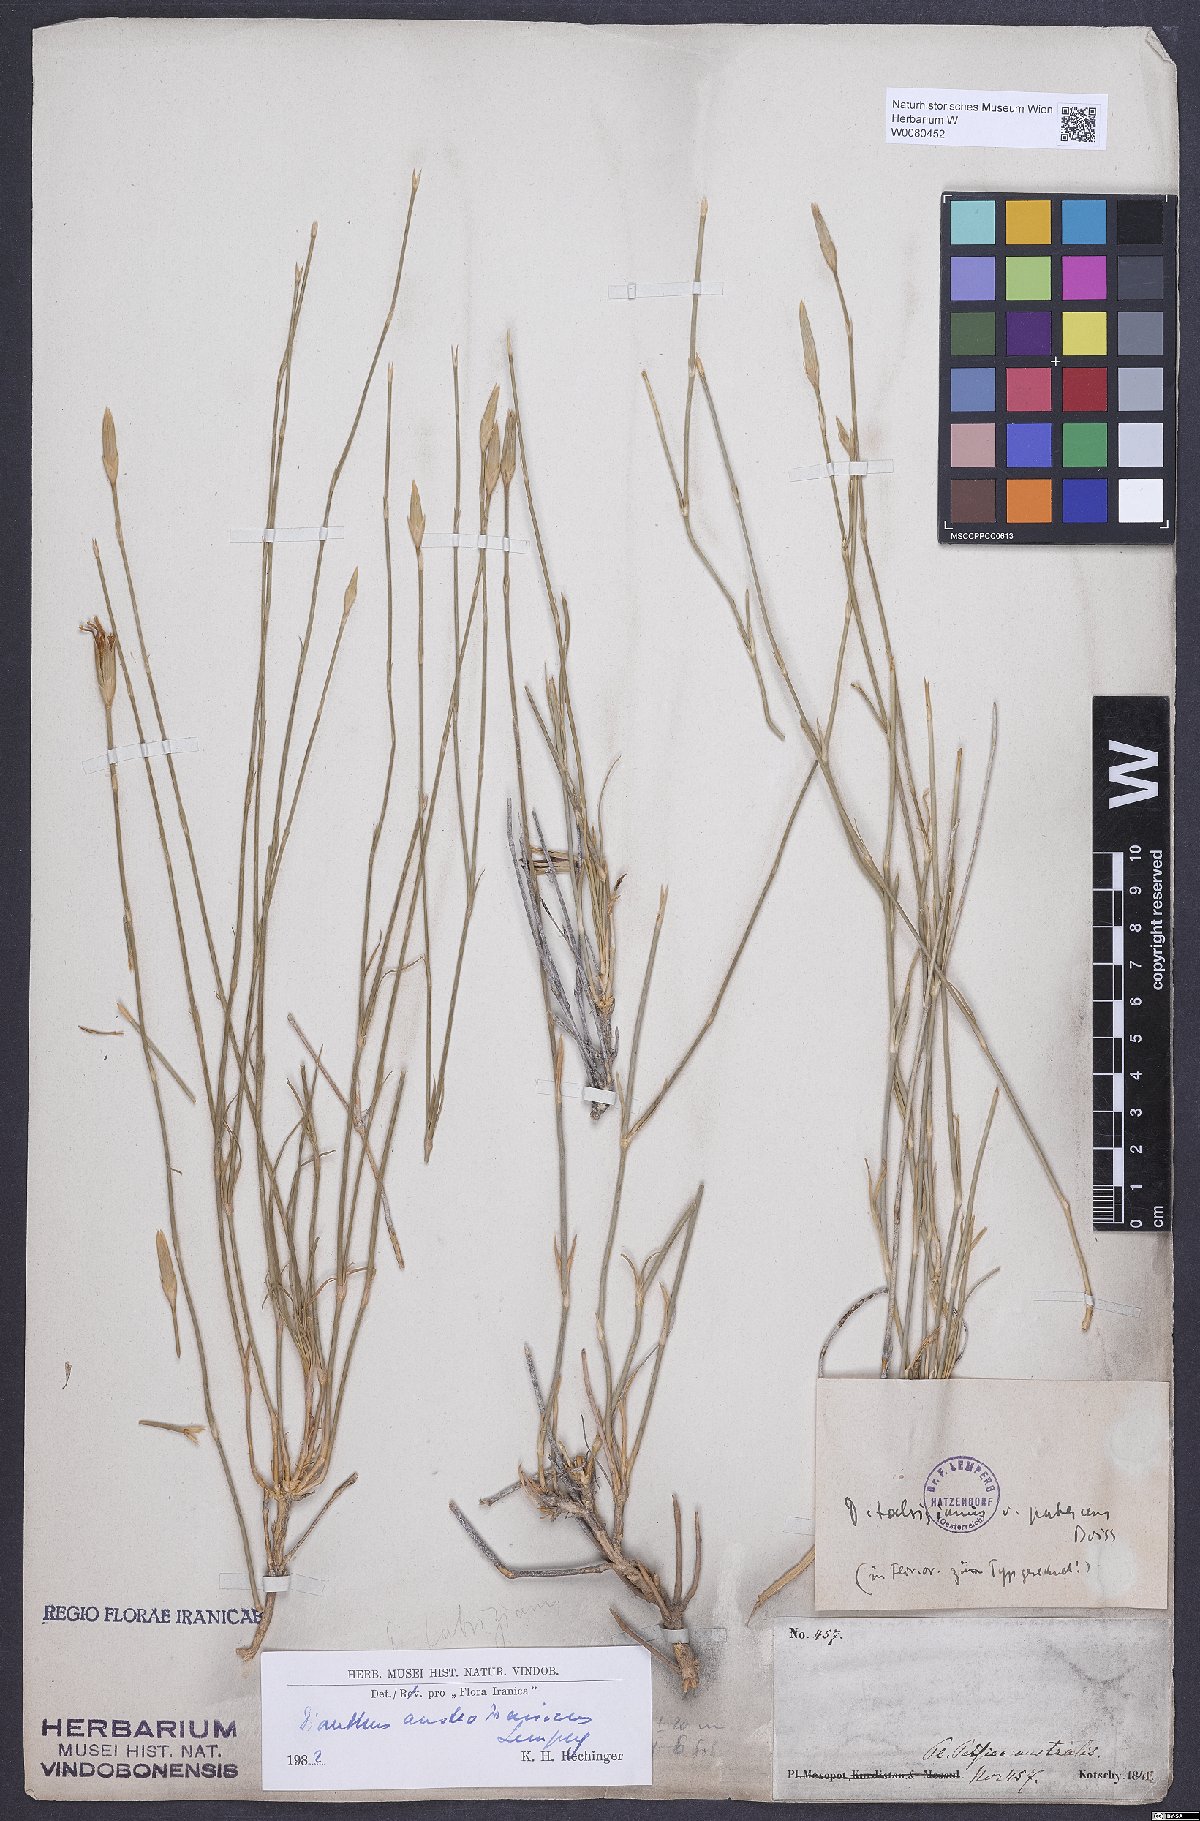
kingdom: Plantae
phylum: Tracheophyta
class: Magnoliopsida
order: Caryophyllales
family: Caryophyllaceae
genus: Dianthus
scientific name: Dianthus austroiranicus
